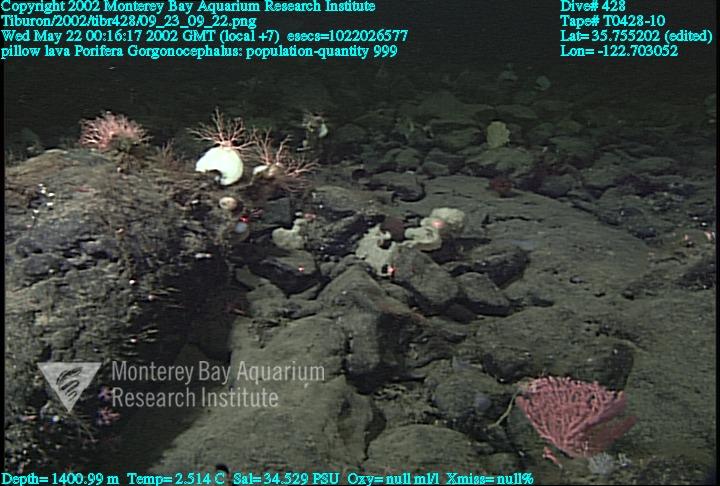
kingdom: Animalia
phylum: Porifera
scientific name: Porifera
